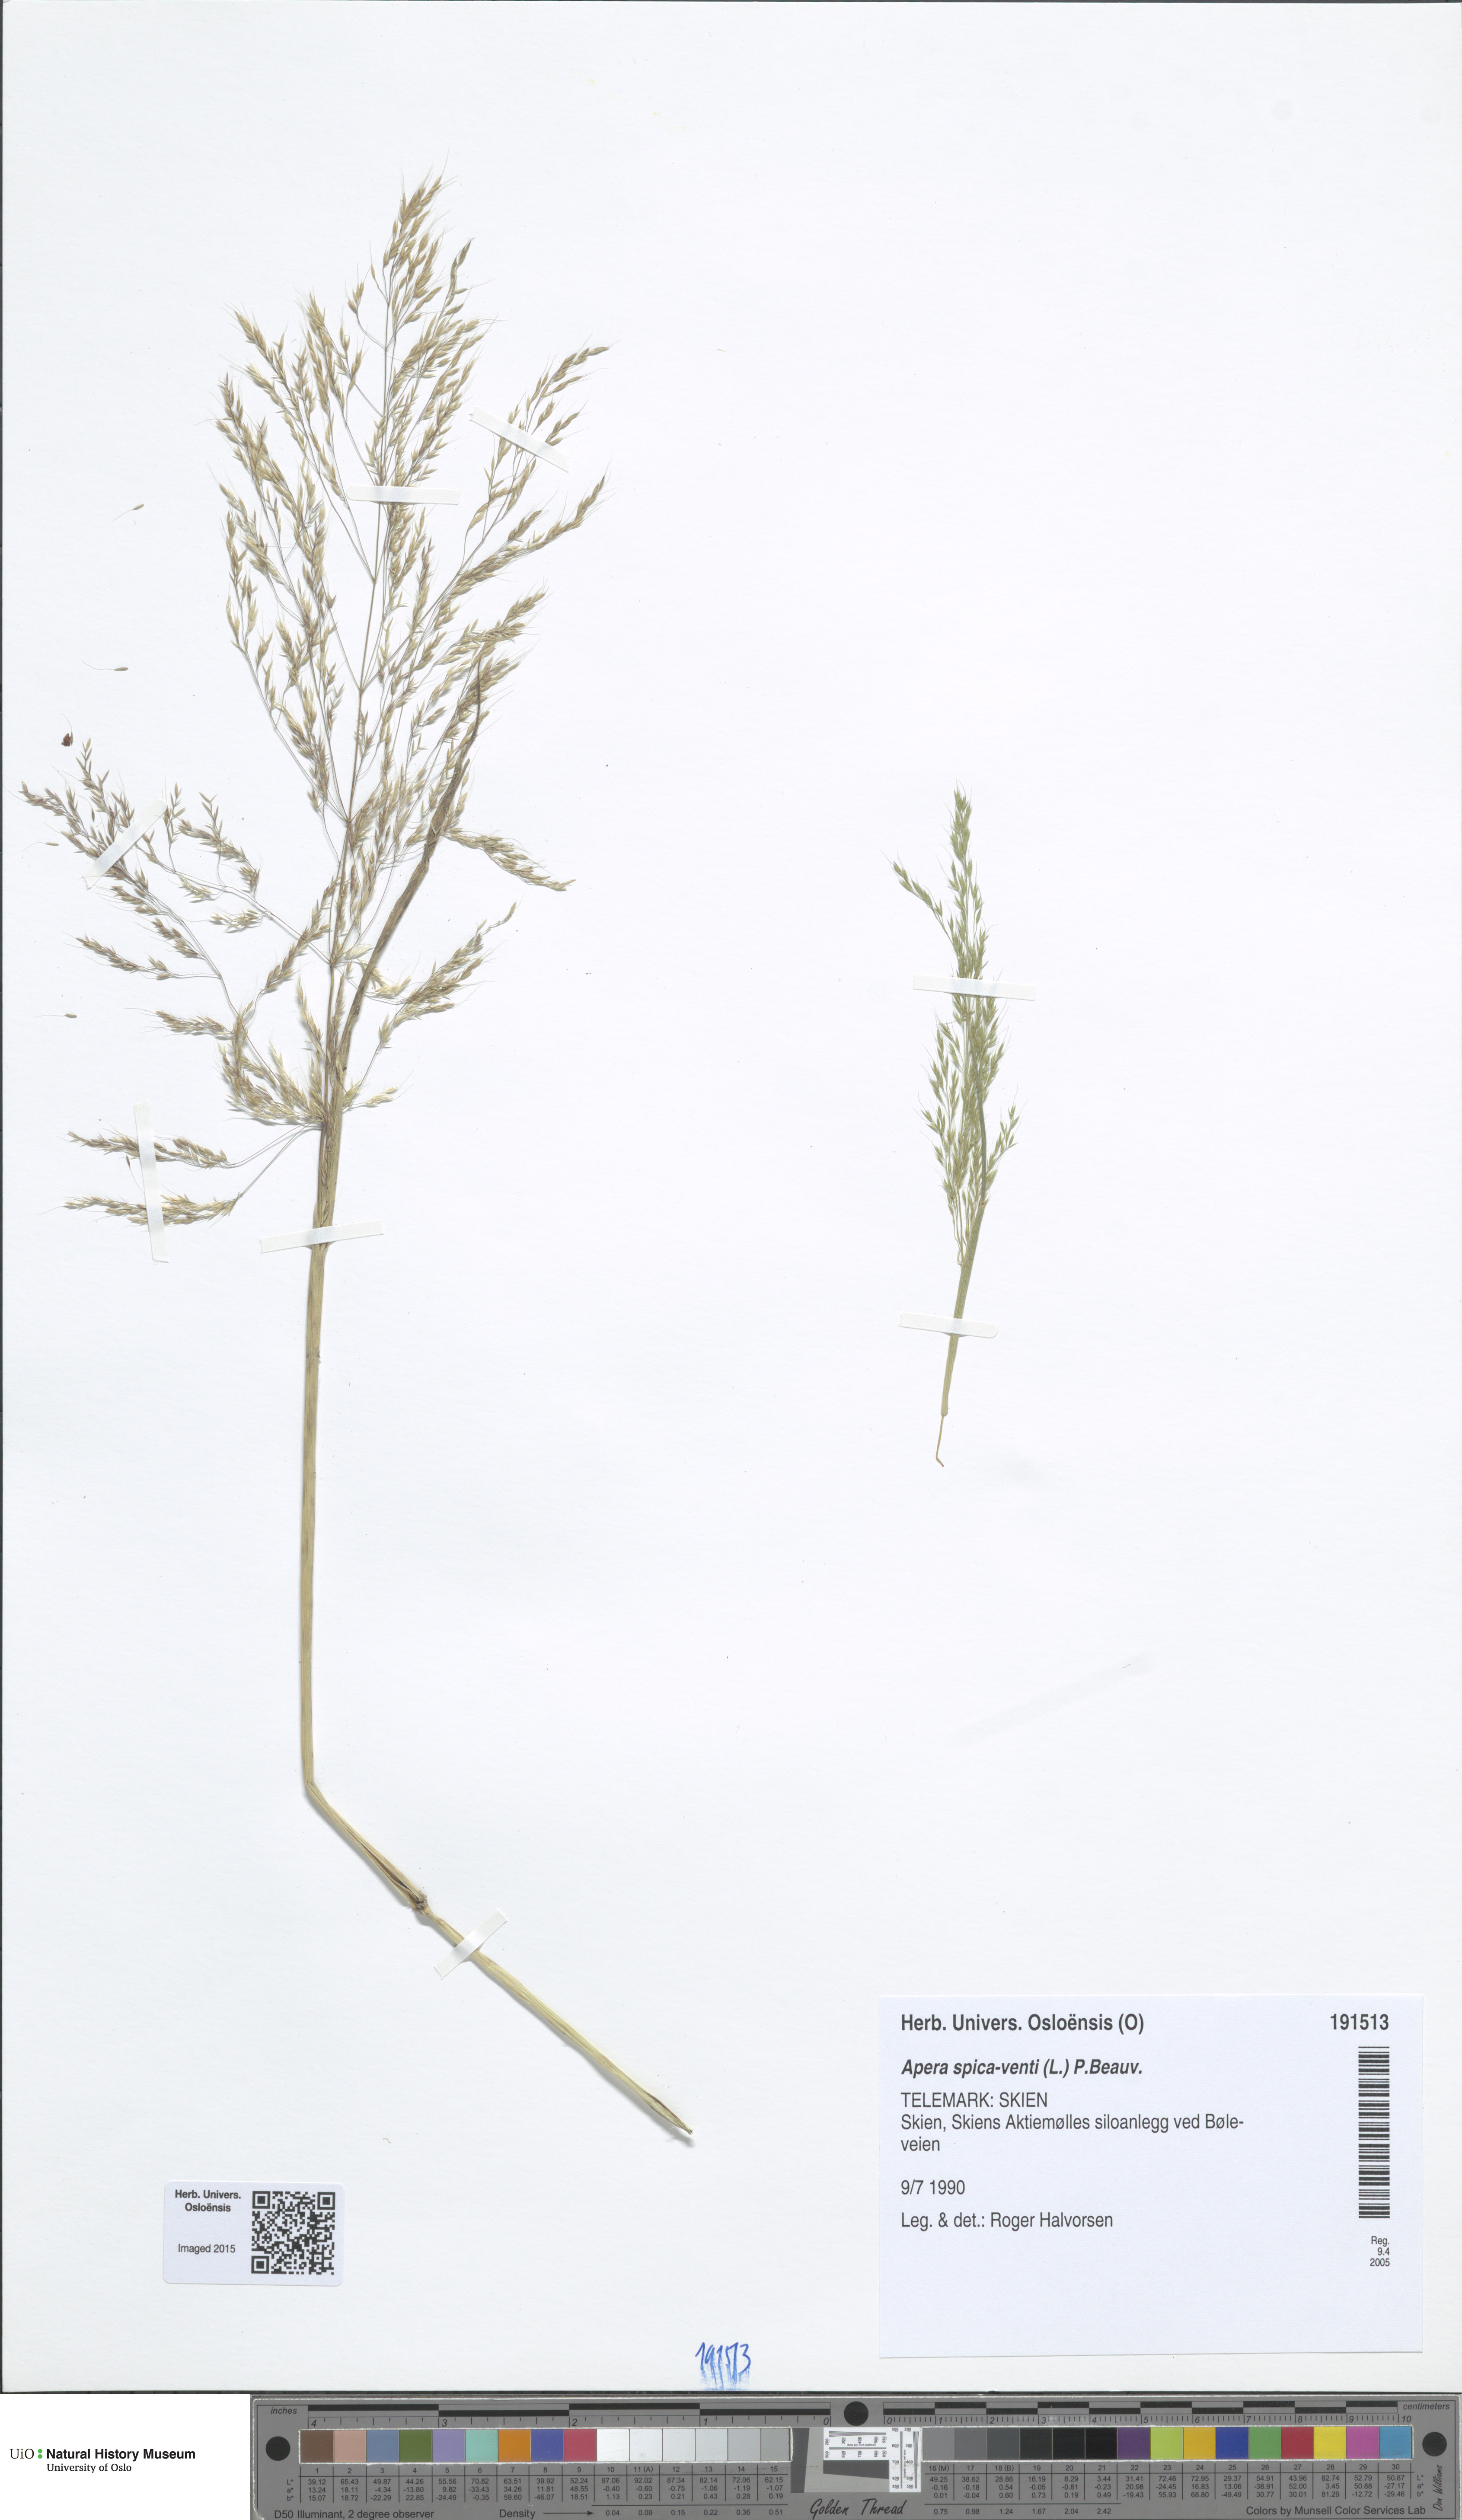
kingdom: Plantae
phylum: Tracheophyta
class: Liliopsida
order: Poales
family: Poaceae
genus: Apera
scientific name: Apera spica-venti
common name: Loose silky-bent
